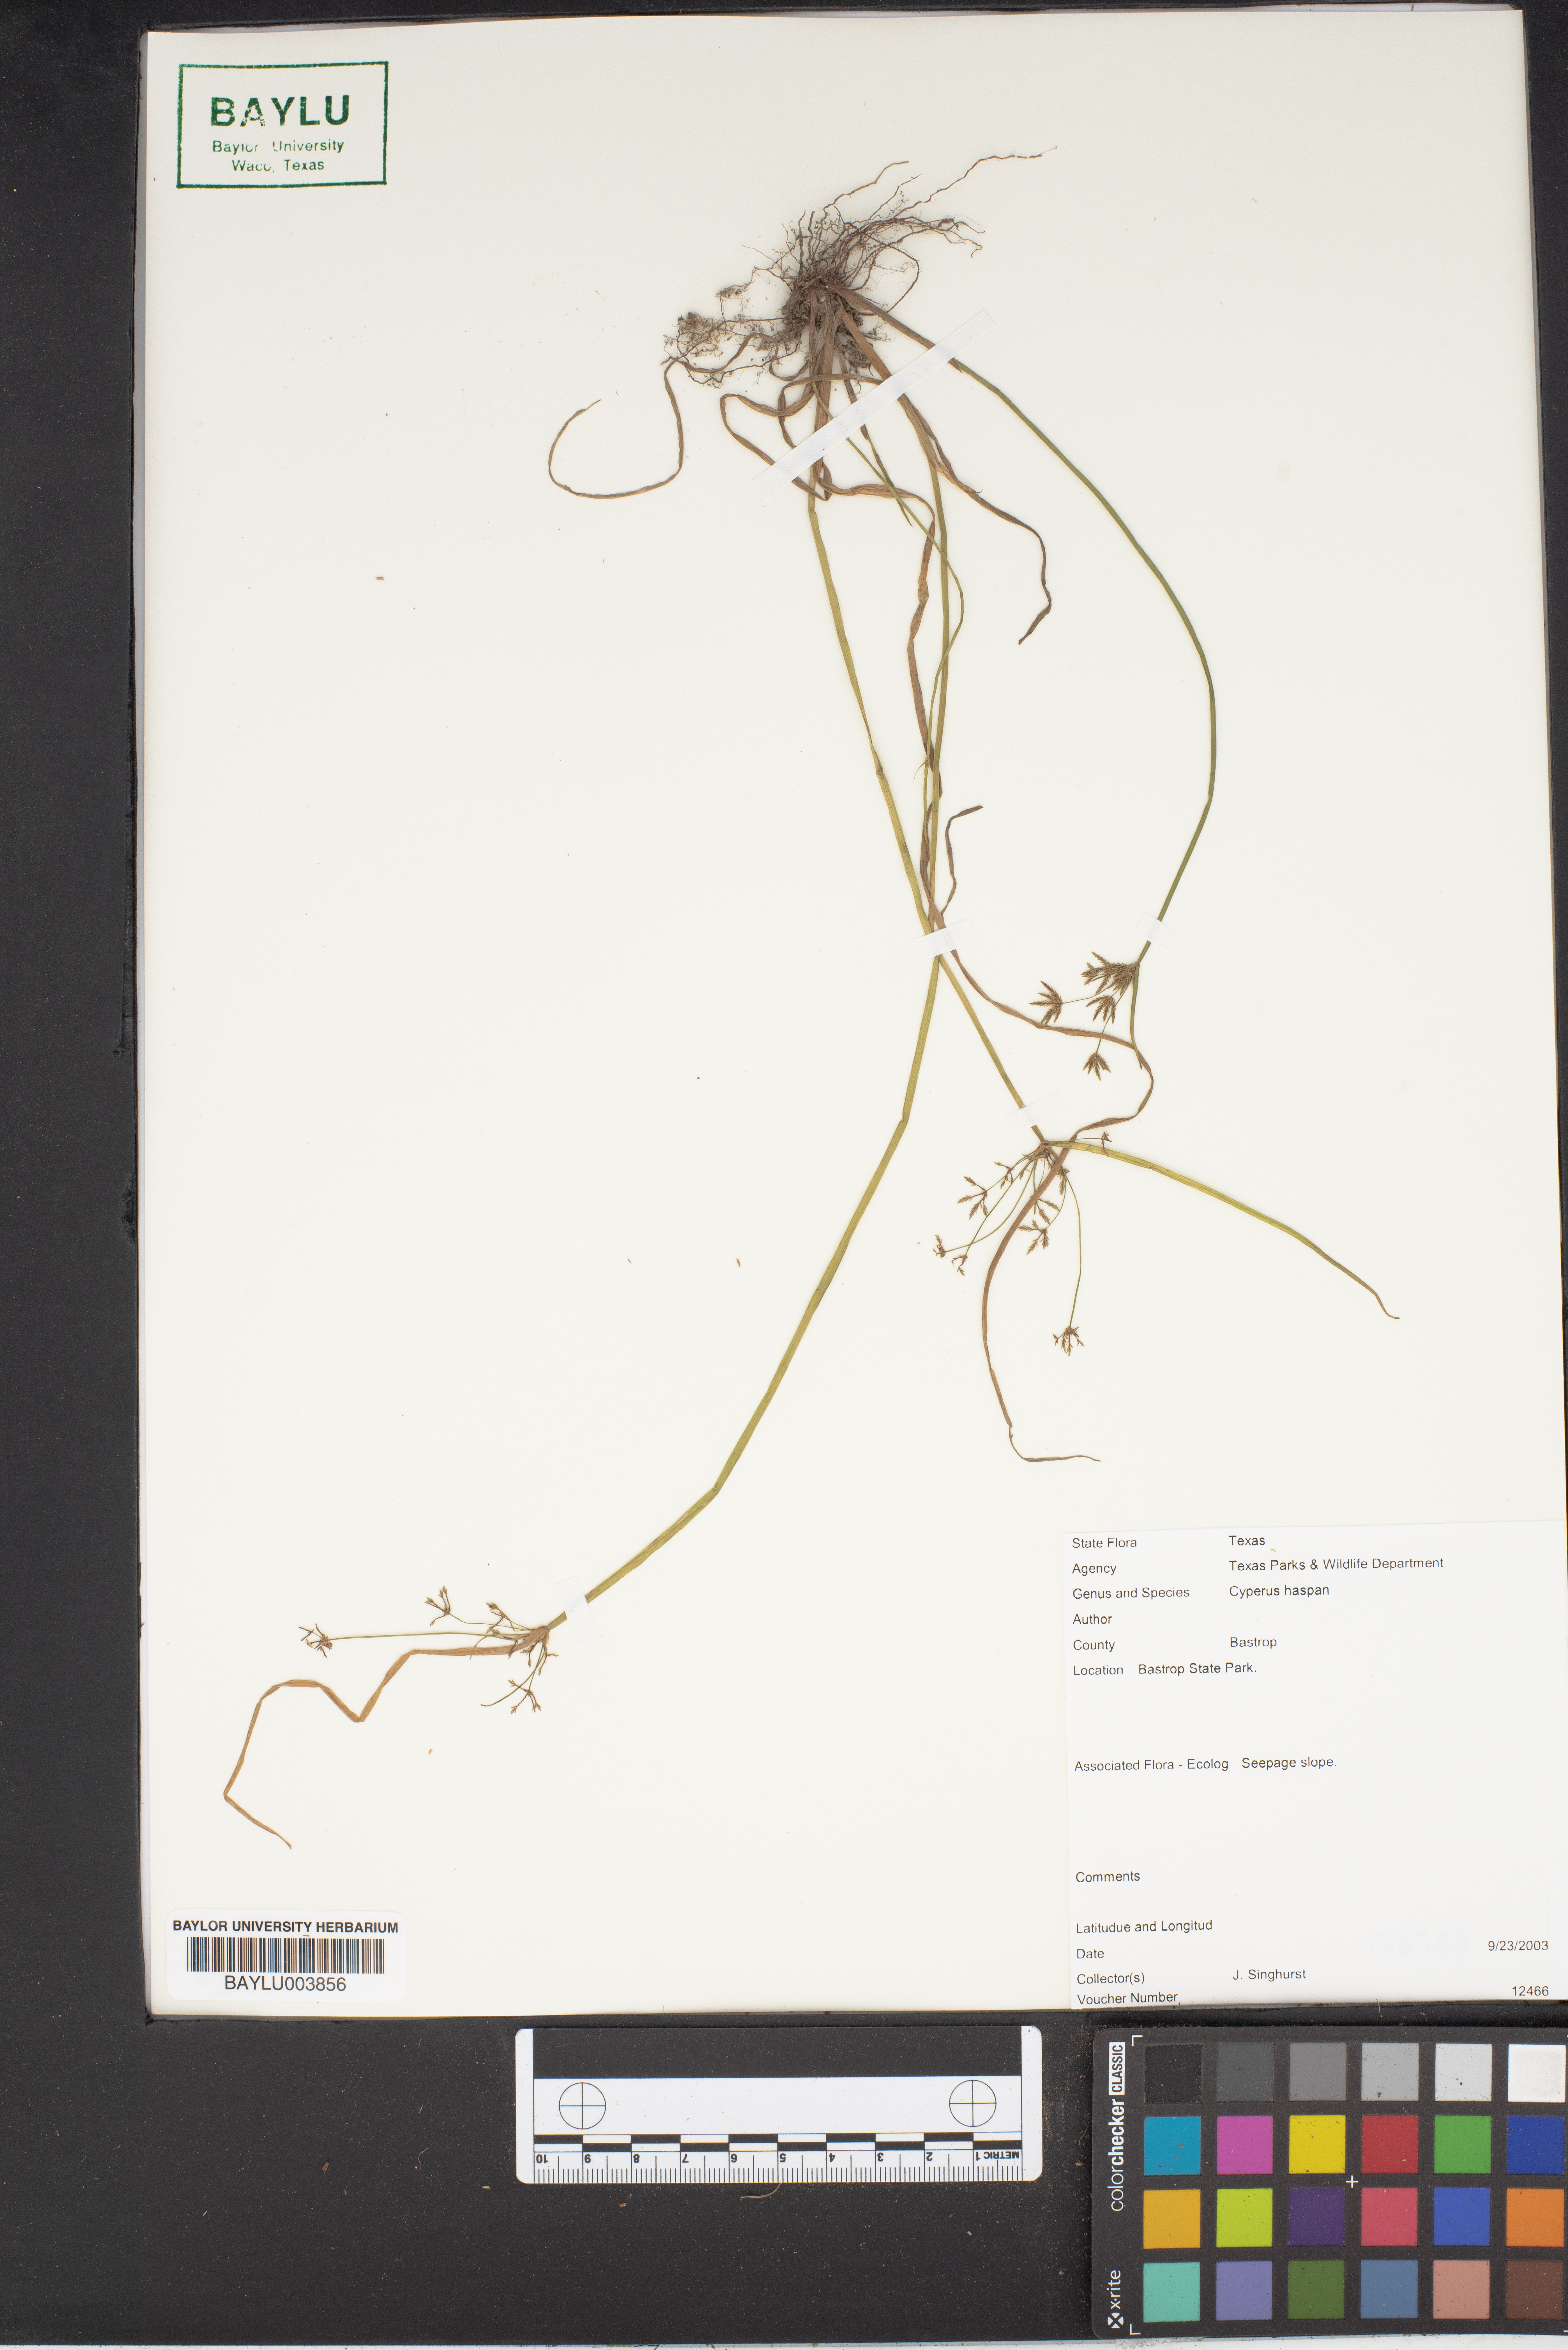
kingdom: Plantae
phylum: Tracheophyta
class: Liliopsida
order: Poales
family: Cyperaceae
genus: Cyperus
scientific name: Cyperus haspan
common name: Haspan flatsedge
